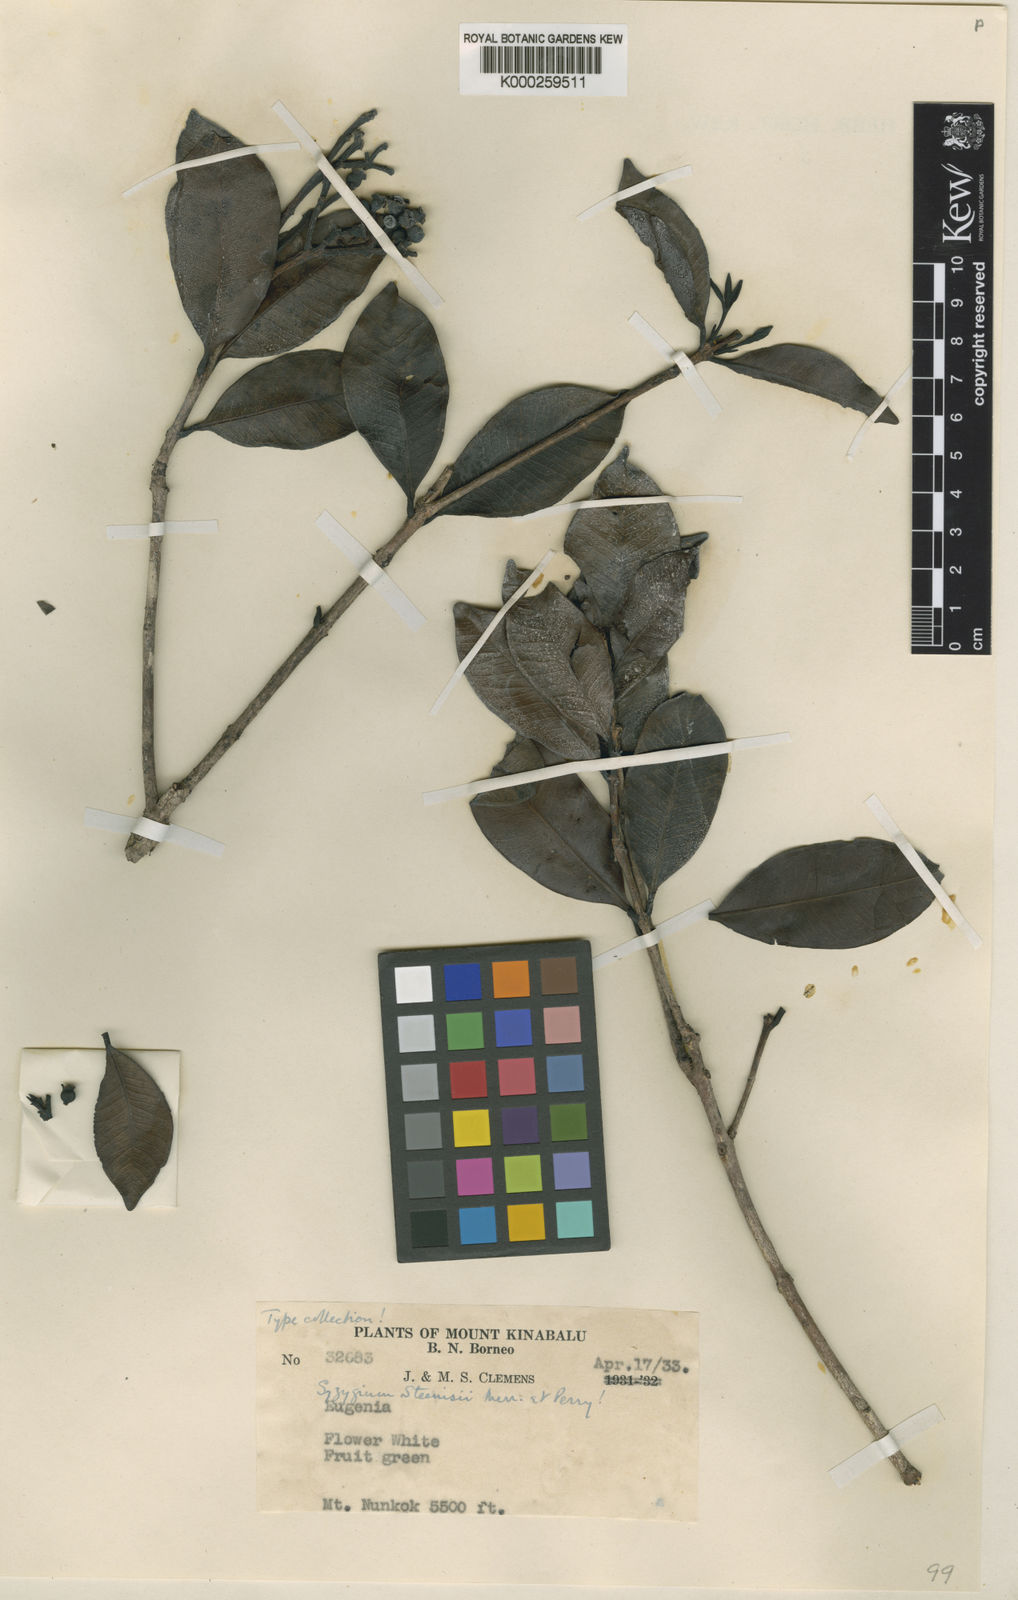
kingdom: Plantae
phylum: Tracheophyta
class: Magnoliopsida
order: Myrtales
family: Myrtaceae
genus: Syzygium
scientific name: Syzygium steenisii
